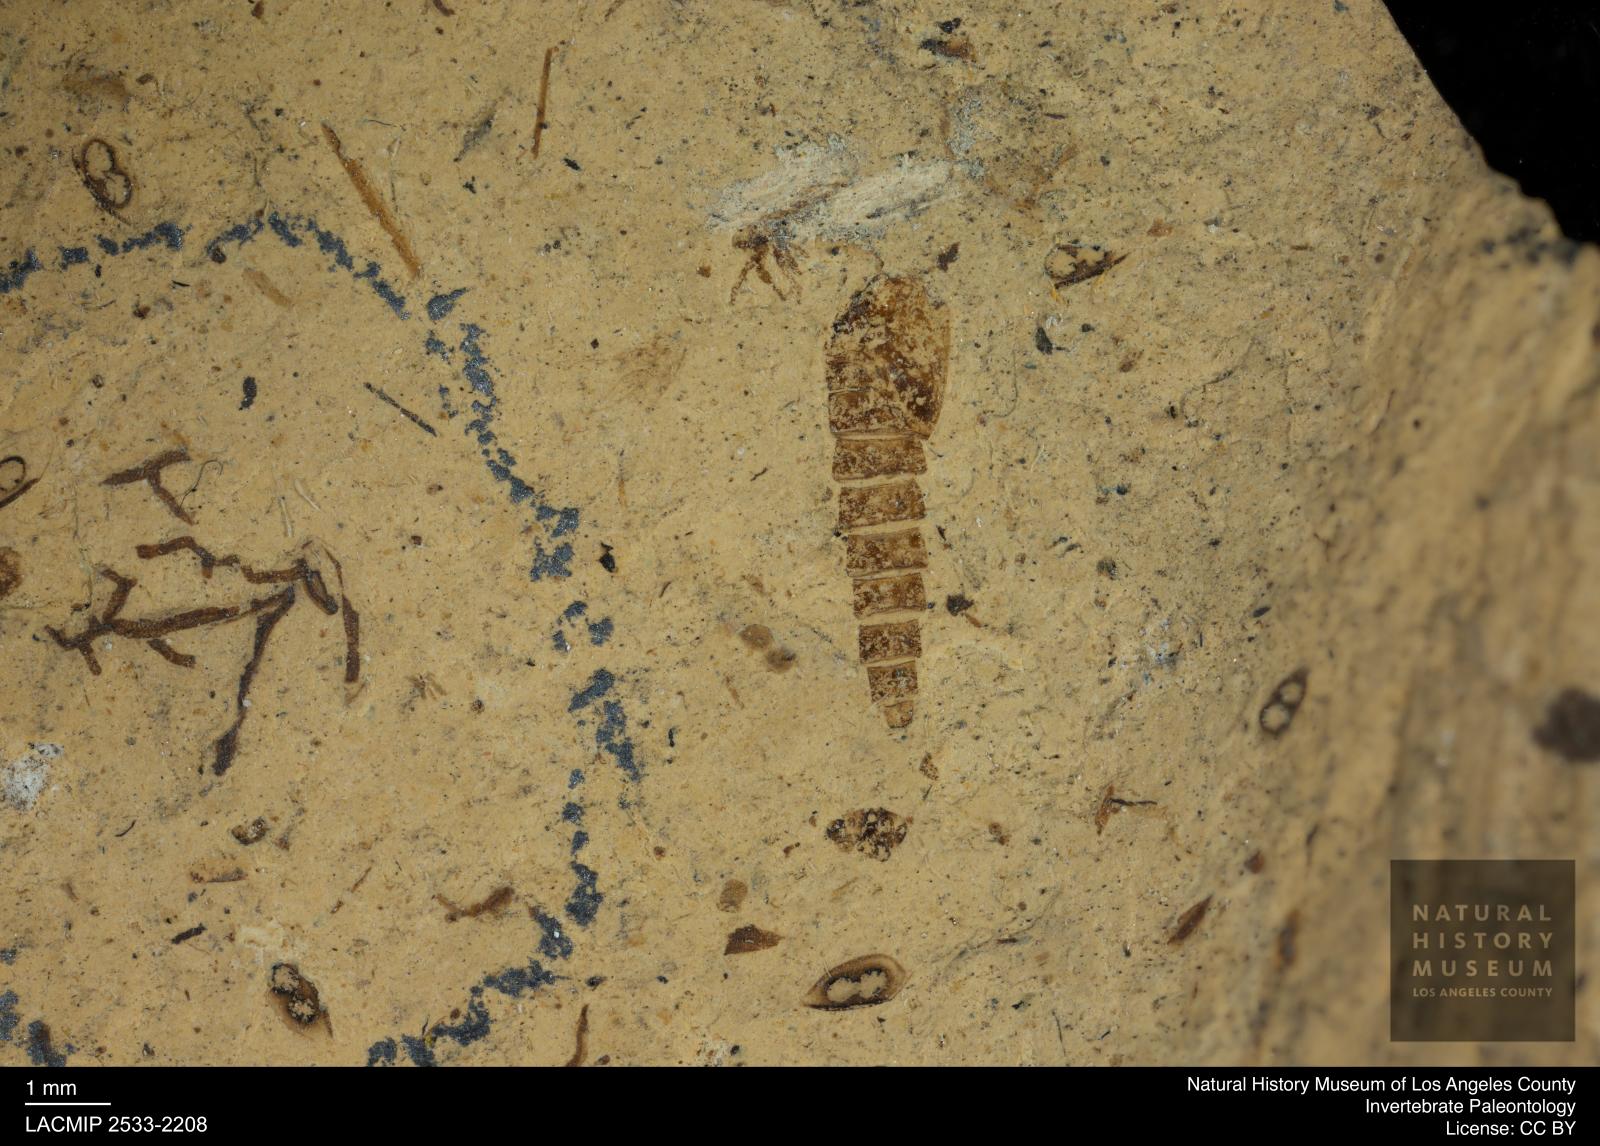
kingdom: Animalia
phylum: Arthropoda
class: Insecta
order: Diptera
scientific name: Diptera
